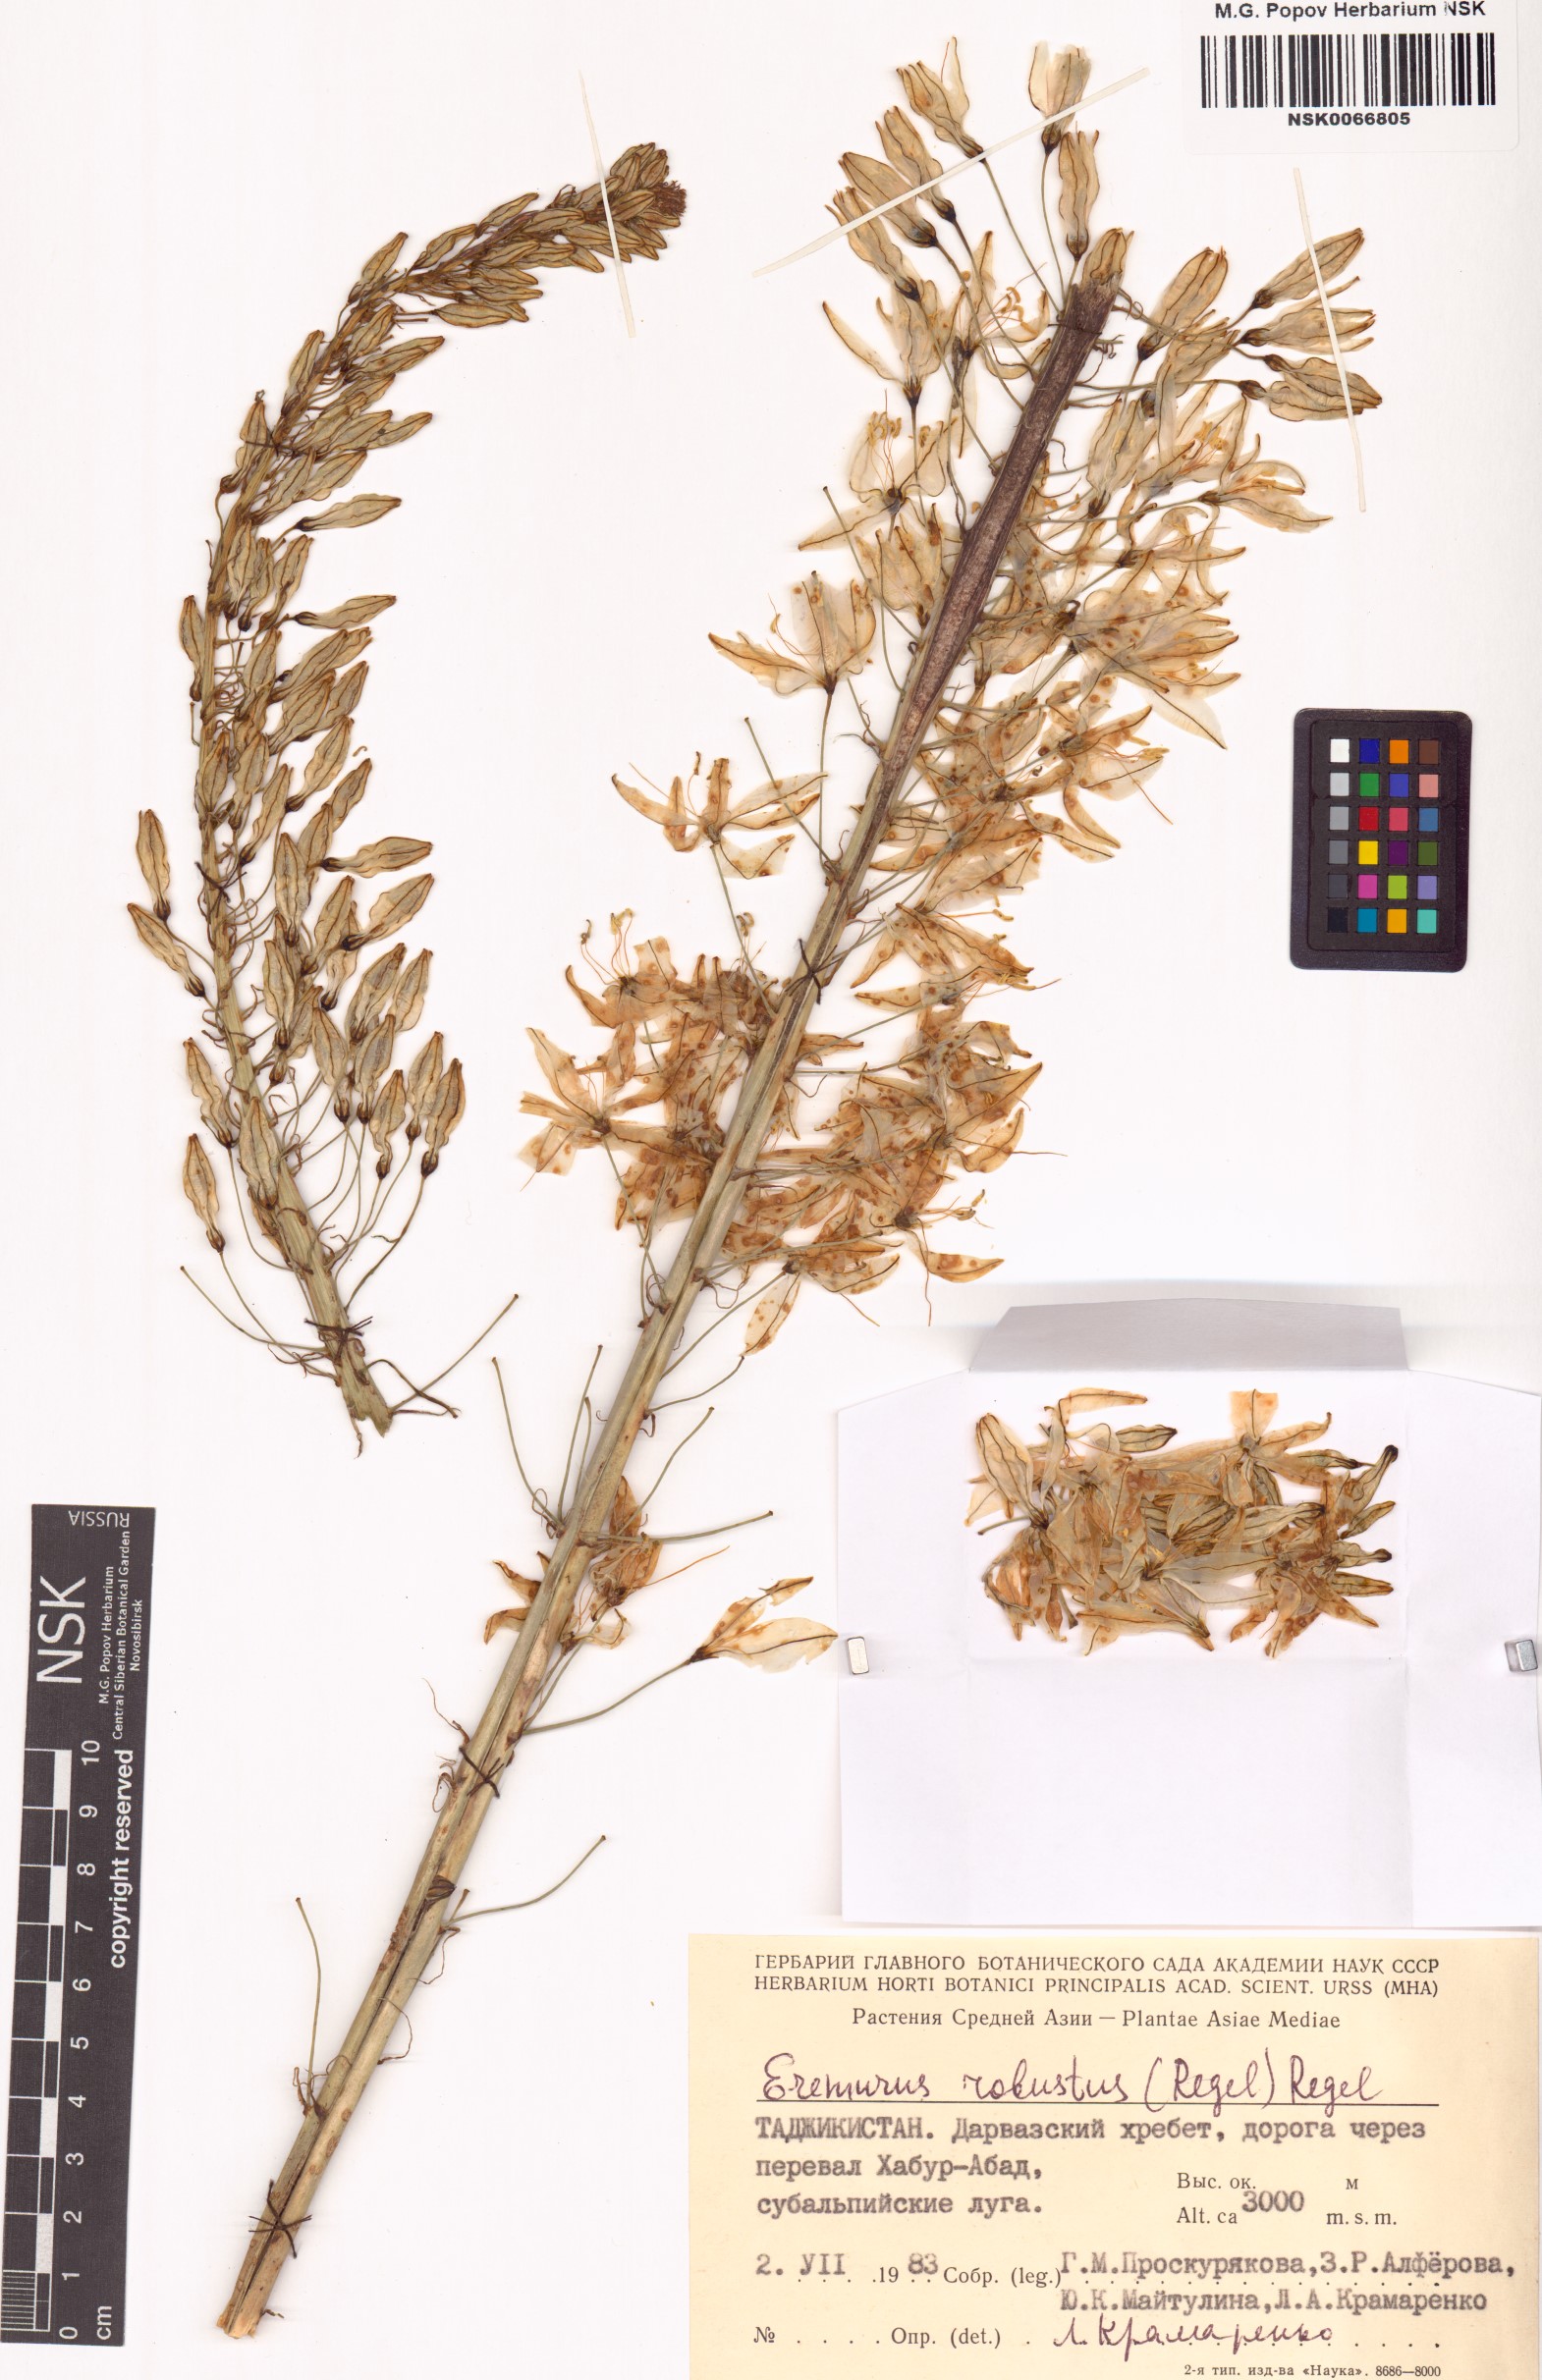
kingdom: Plantae
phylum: Tracheophyta
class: Liliopsida
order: Asparagales
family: Asphodelaceae
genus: Eremurus
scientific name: Eremurus robustus
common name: Foxtail lily
